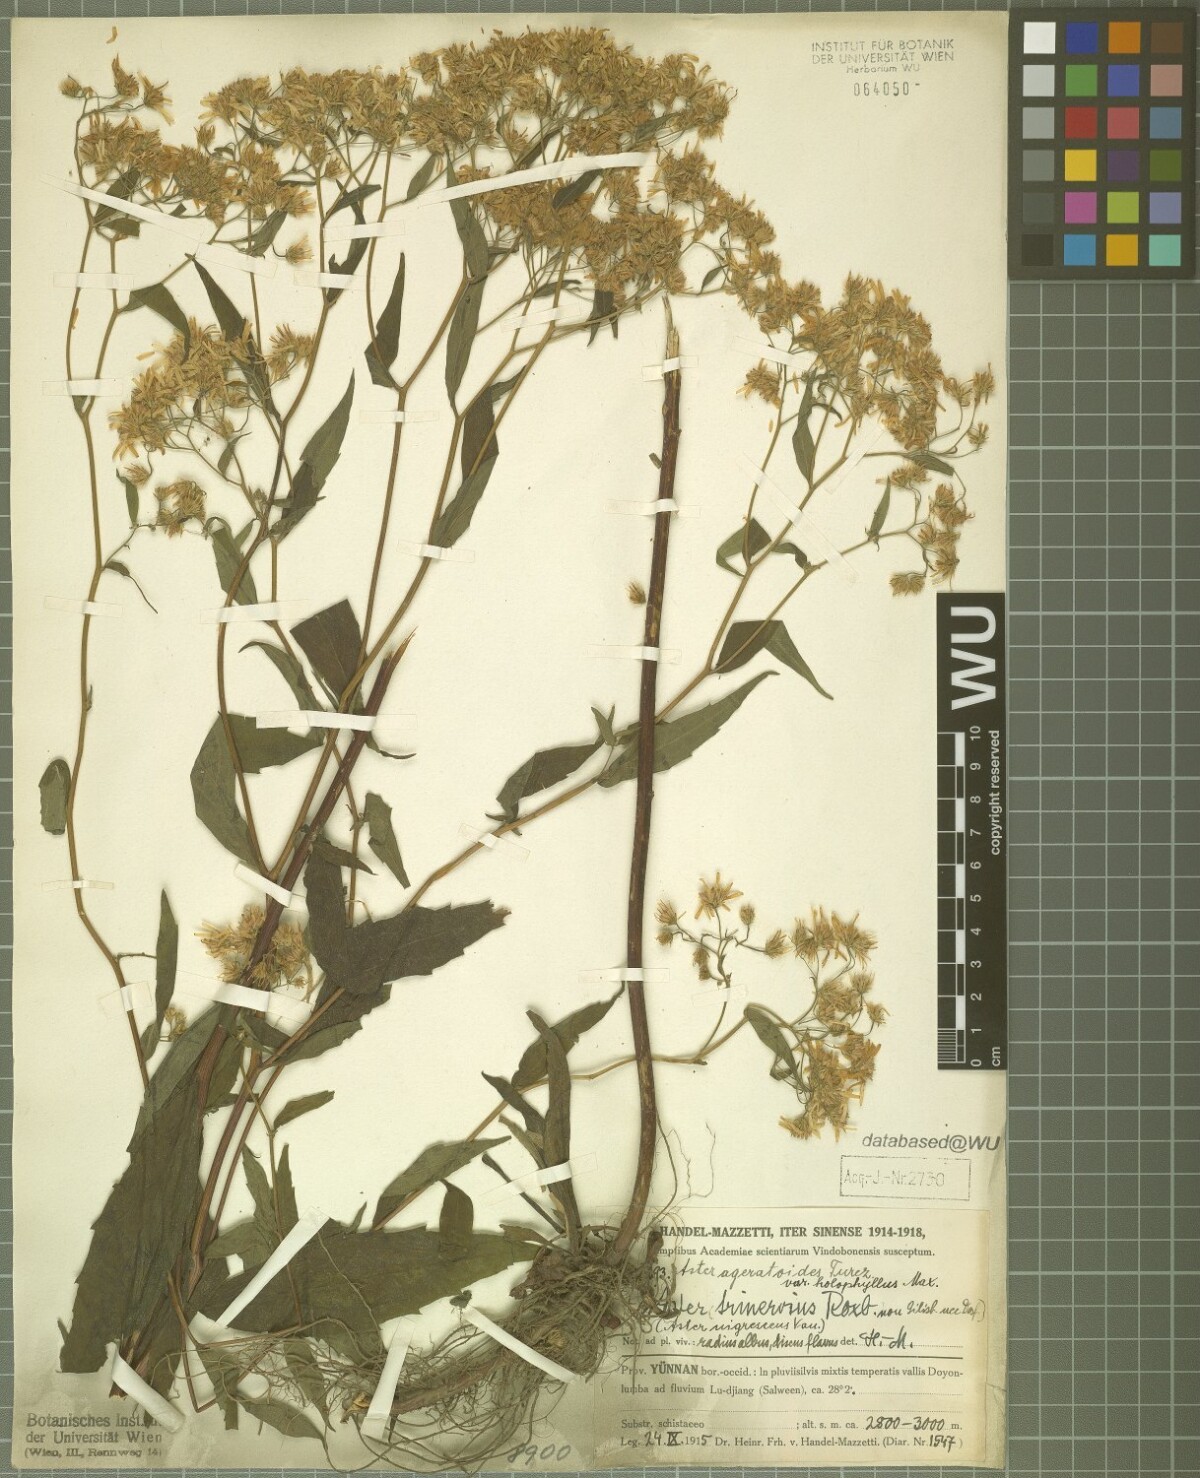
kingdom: Plantae
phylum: Tracheophyta
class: Magnoliopsida
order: Asterales
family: Asteraceae
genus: Aster
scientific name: Aster ageratoides
